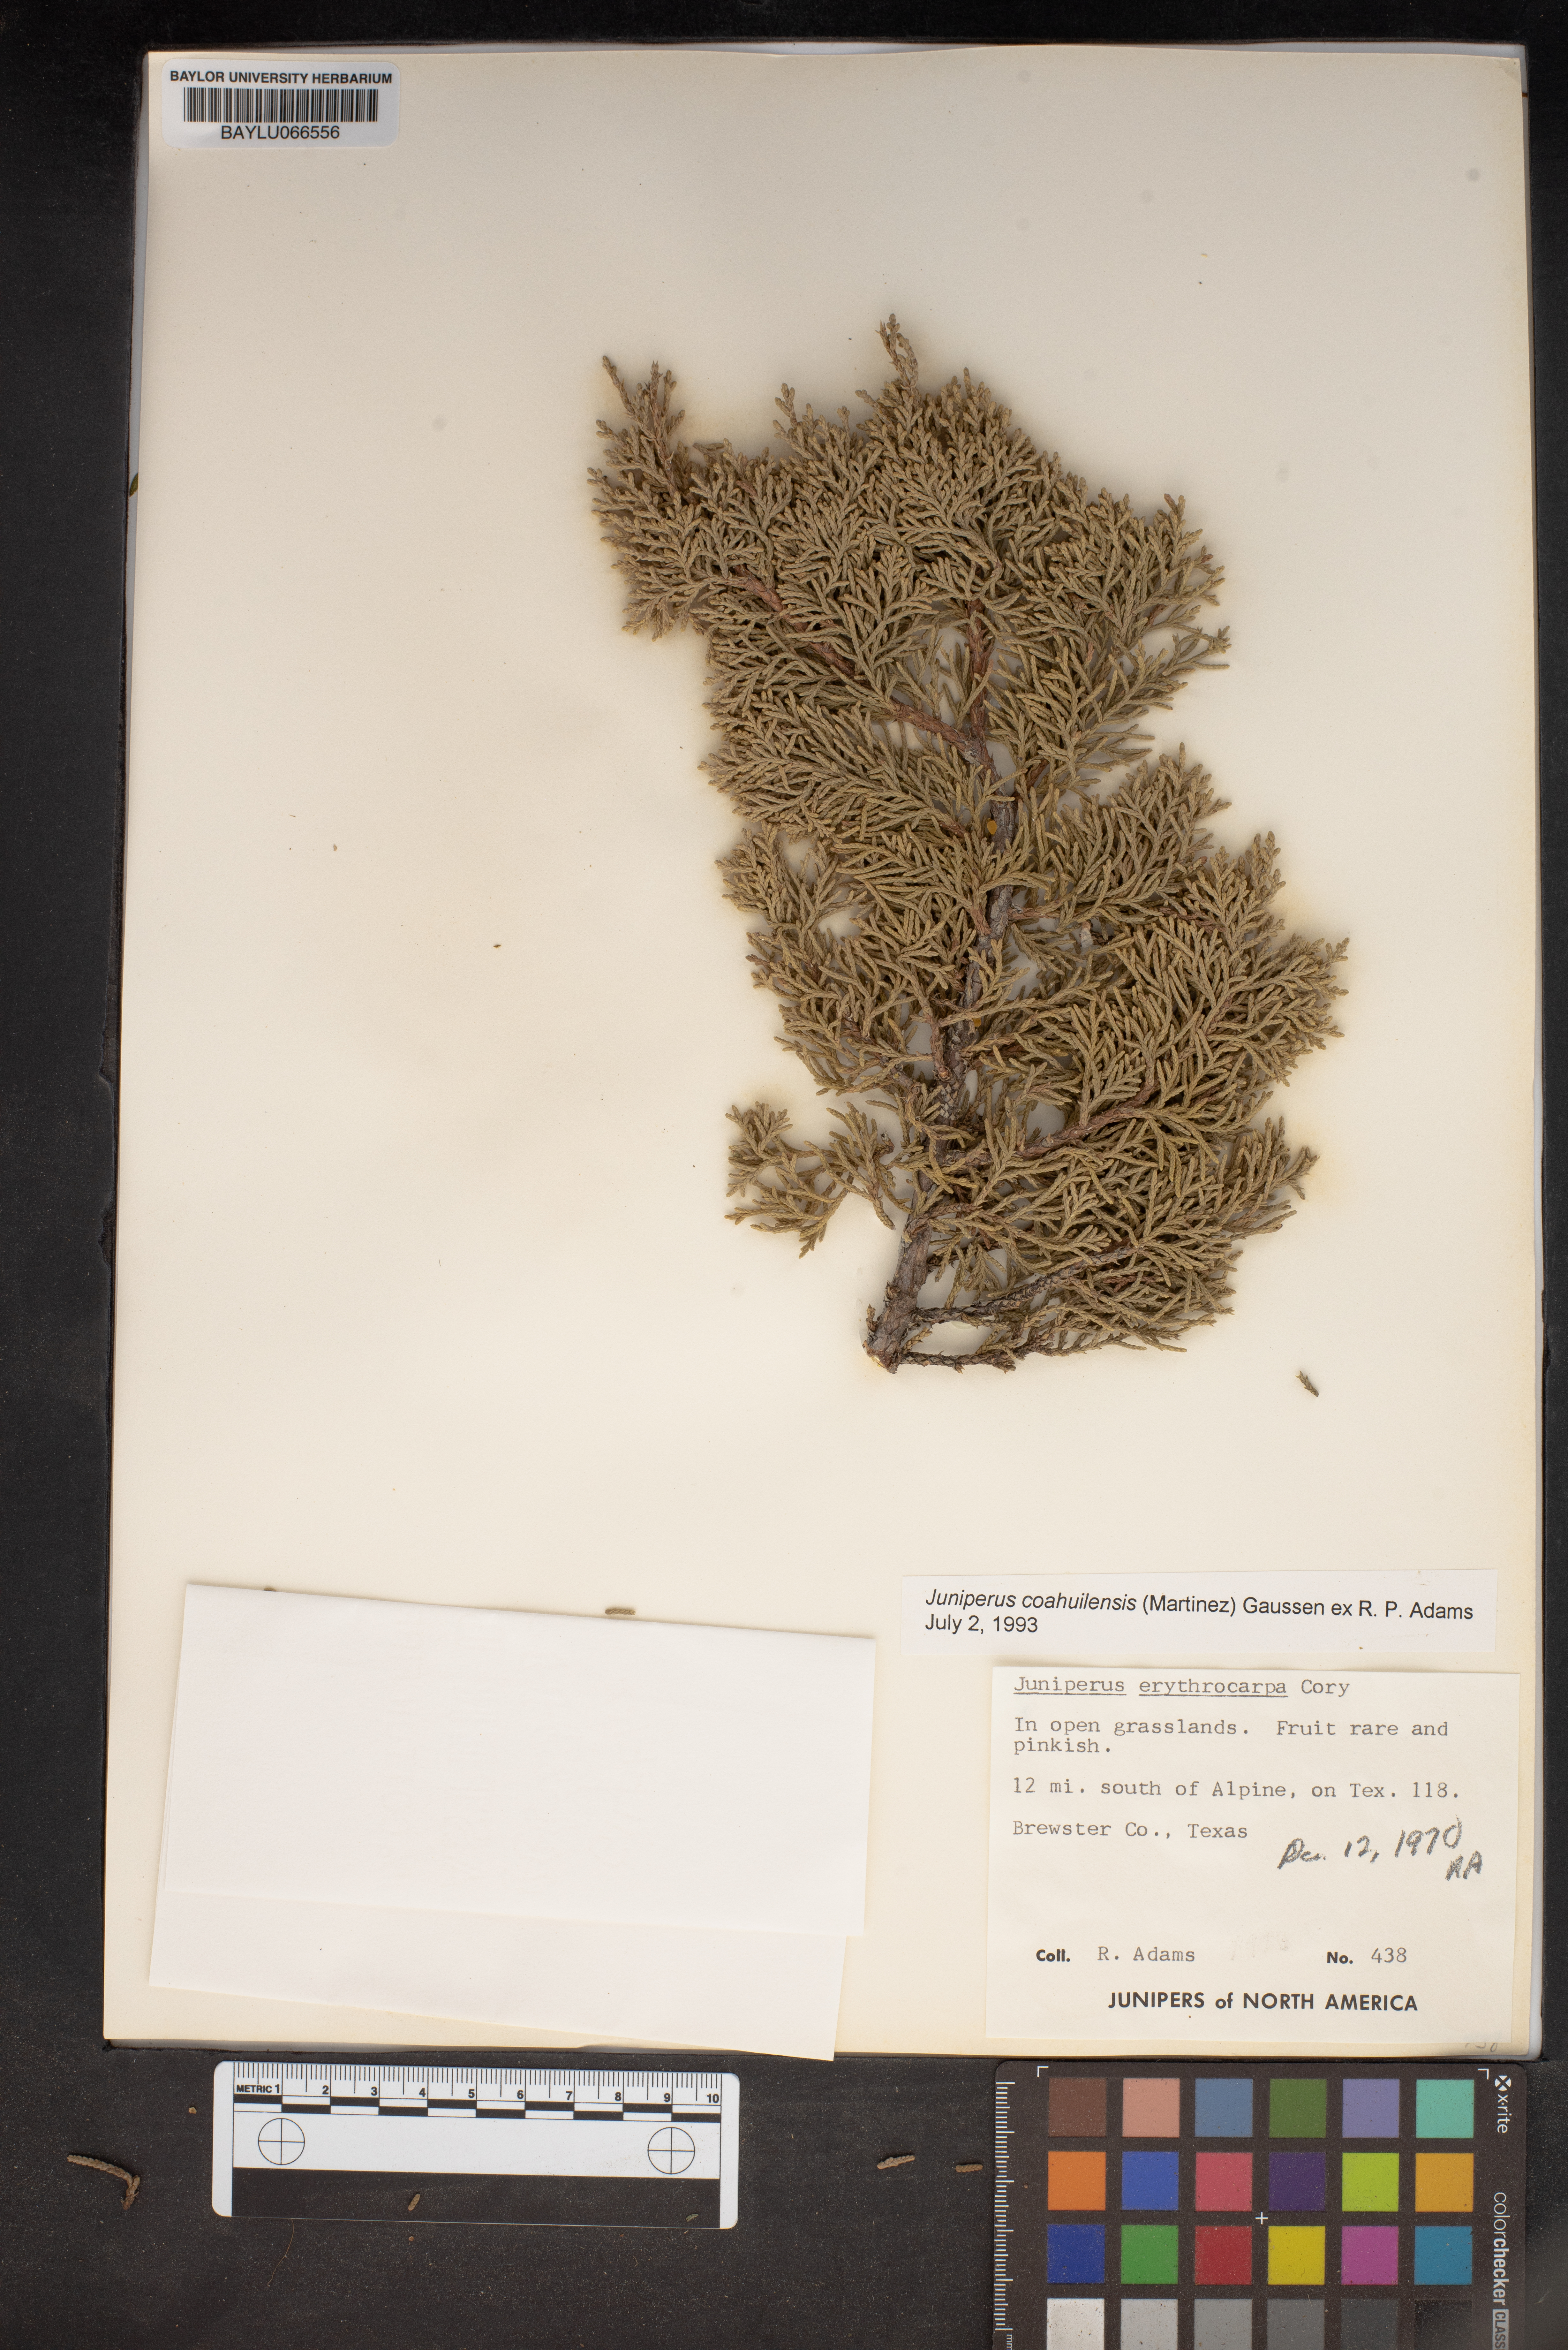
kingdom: Plantae
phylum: Tracheophyta
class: Pinopsida
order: Pinales
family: Cupressaceae
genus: Juniperus
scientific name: Juniperus pinchotii
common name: Pinchot juniper
